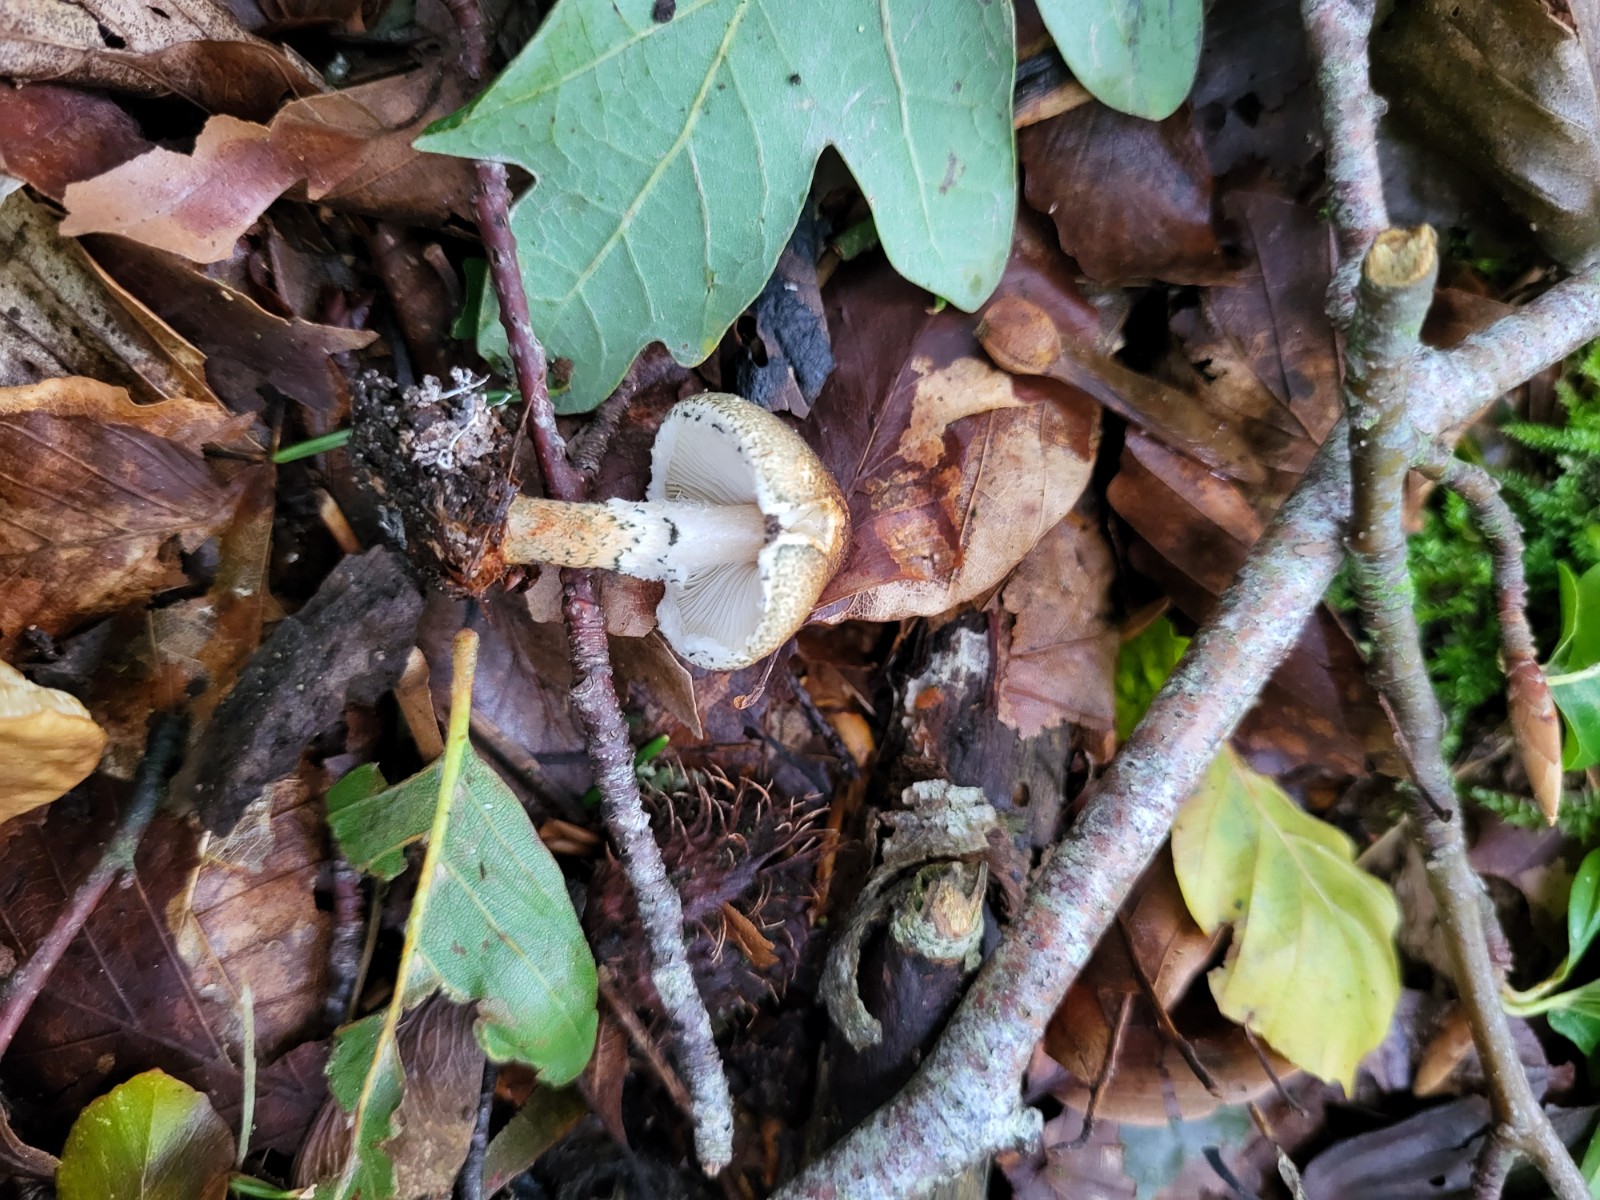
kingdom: Fungi
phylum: Basidiomycota
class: Agaricomycetes
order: Agaricales
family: Agaricaceae
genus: Lepiota
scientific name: Lepiota grangei
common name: grønskællet parasolhat
